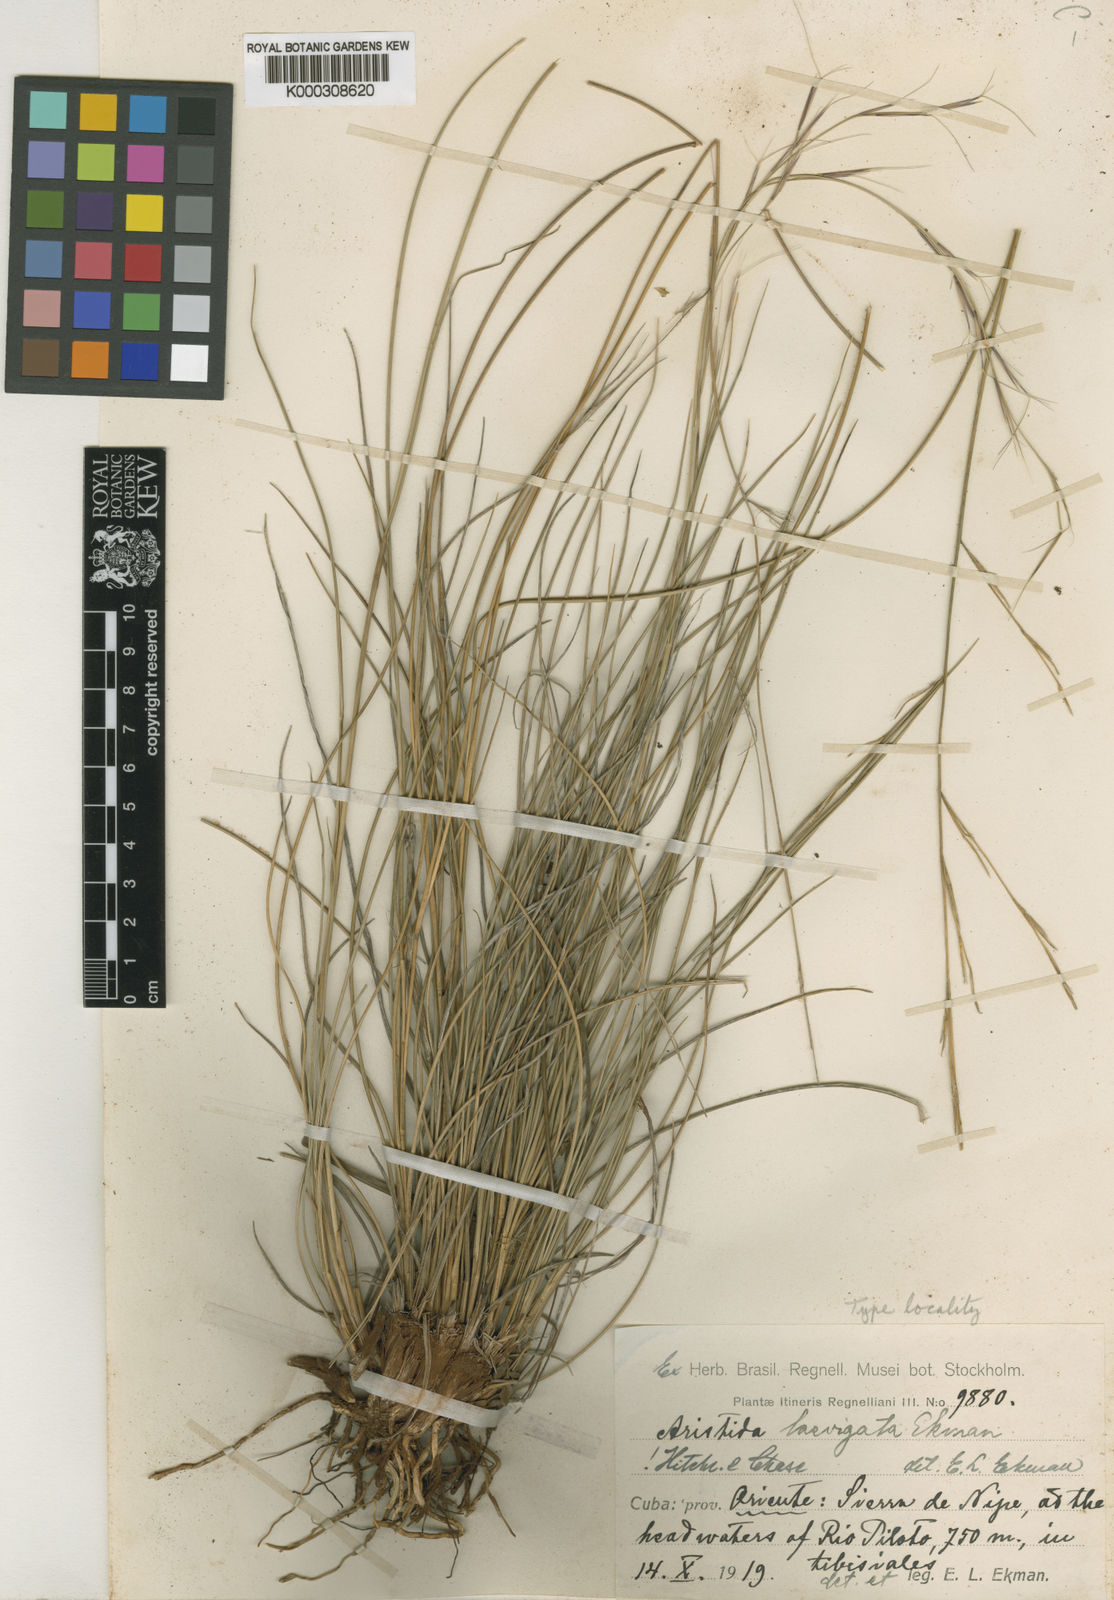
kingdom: Plantae
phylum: Tracheophyta
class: Liliopsida
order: Poales
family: Poaceae
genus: Aristida
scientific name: Aristida laevigata
